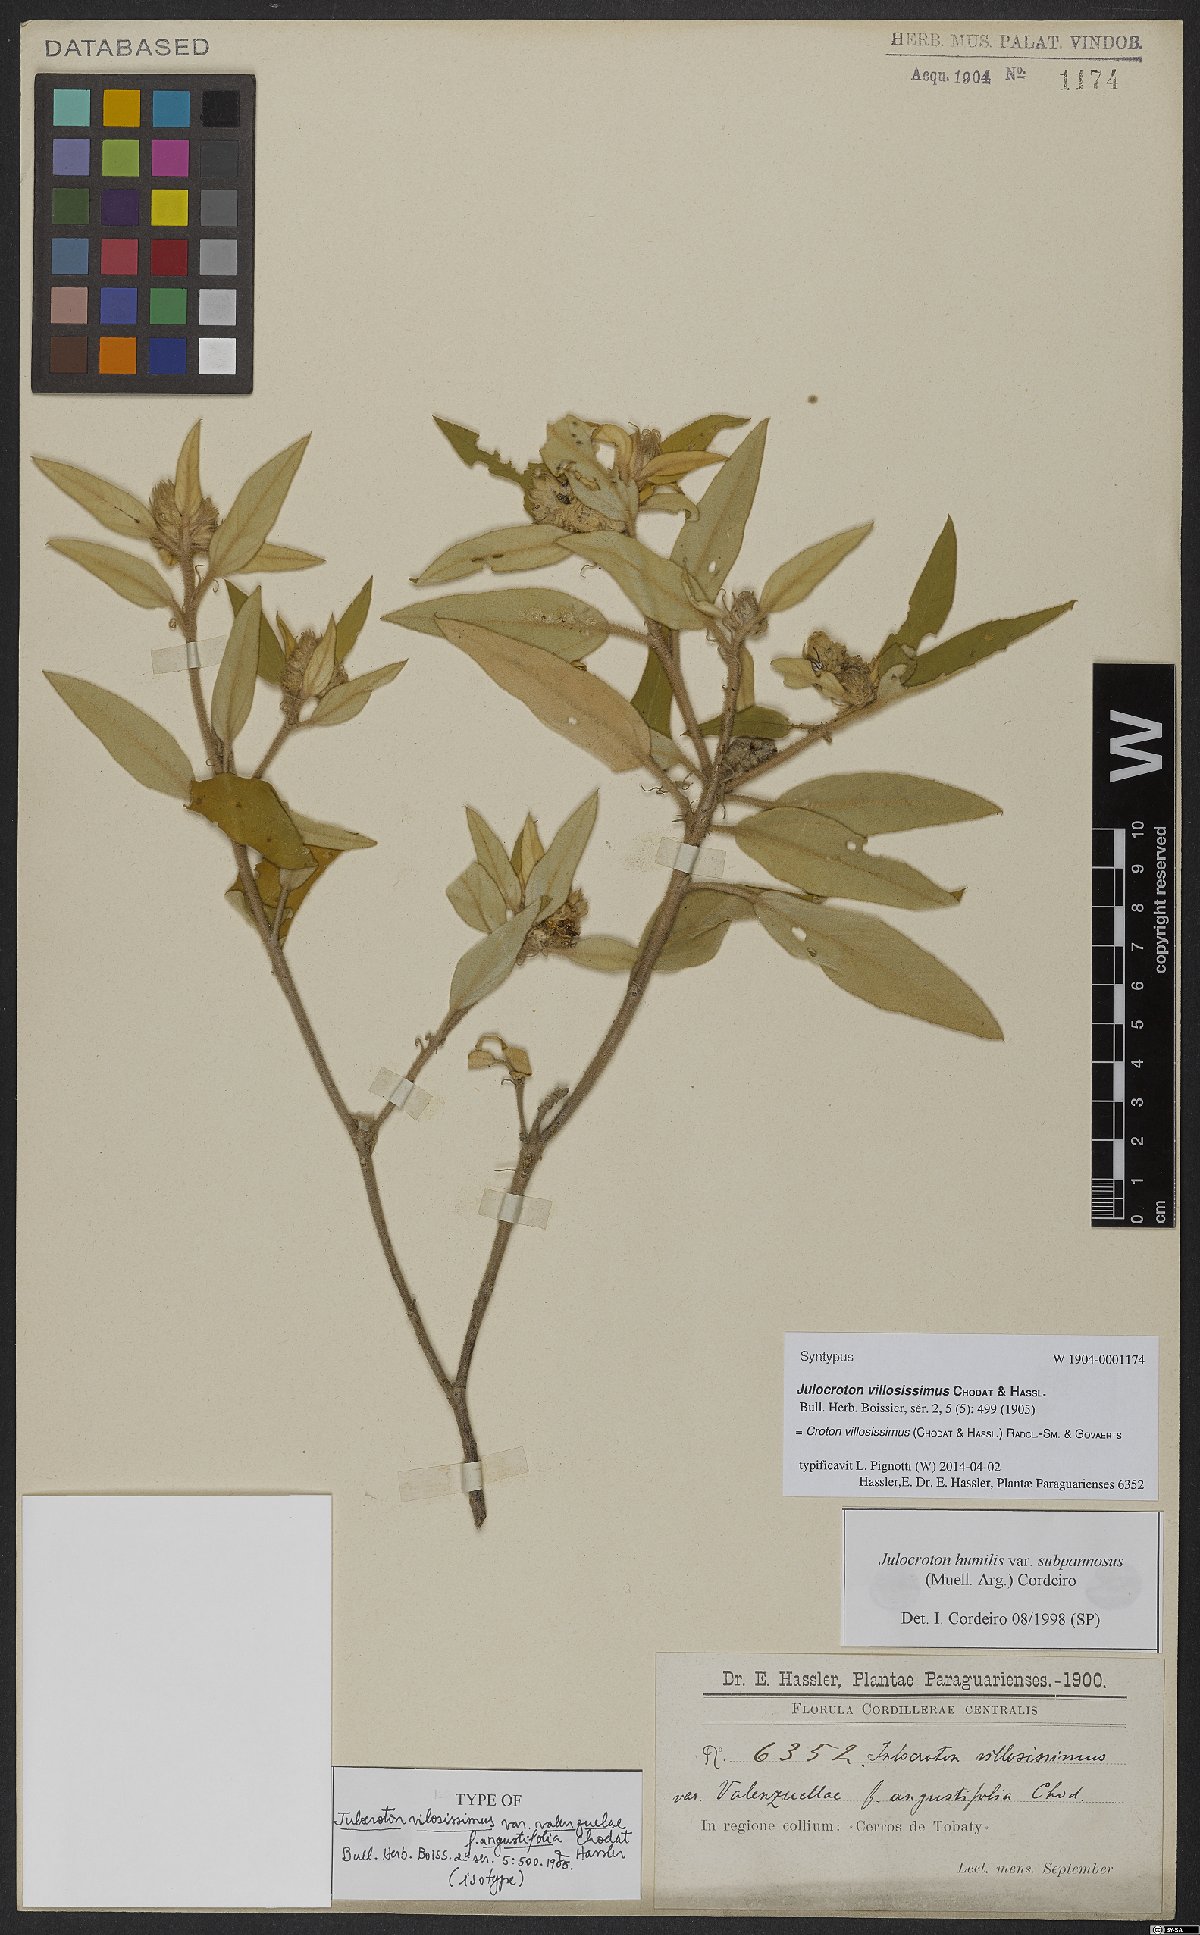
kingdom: Plantae
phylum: Tracheophyta
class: Magnoliopsida
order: Malpighiales
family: Euphorbiaceae
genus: Croton
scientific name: Croton villosissimus
